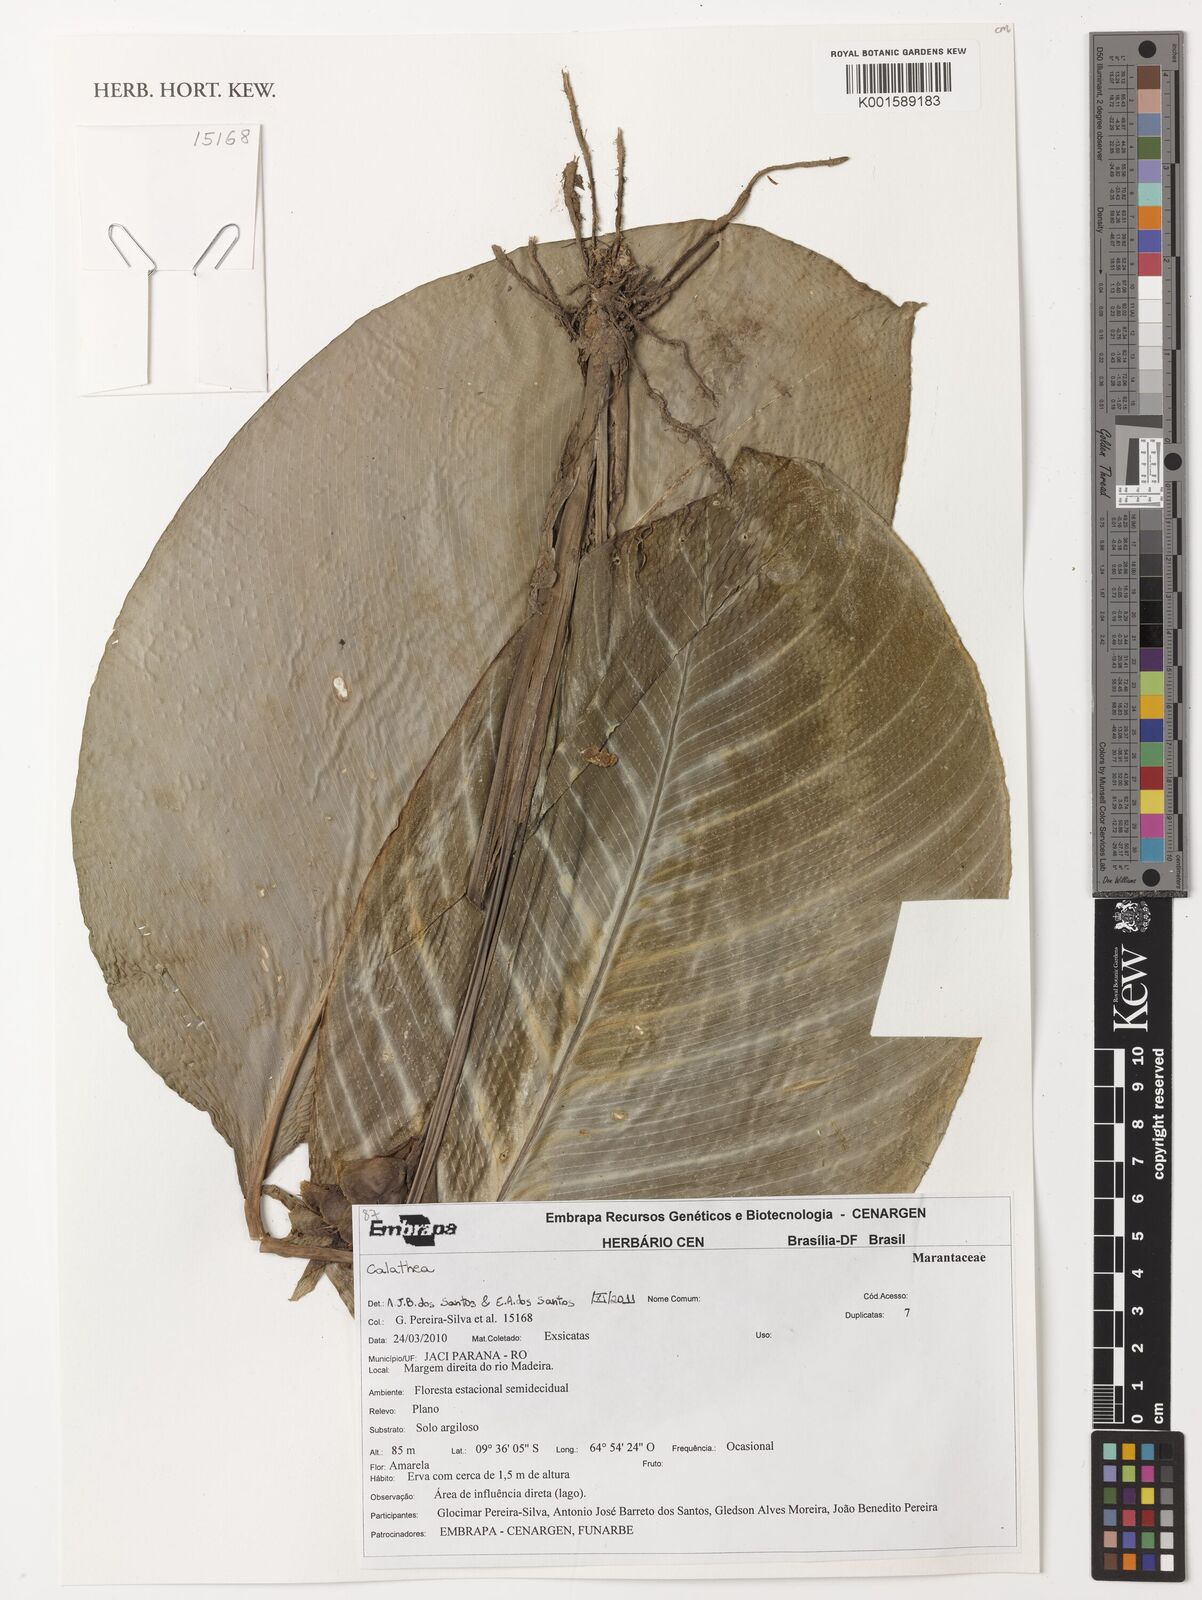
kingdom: Plantae
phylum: Tracheophyta
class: Liliopsida
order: Zingiberales
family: Marantaceae
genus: Calathea
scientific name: Calathea
